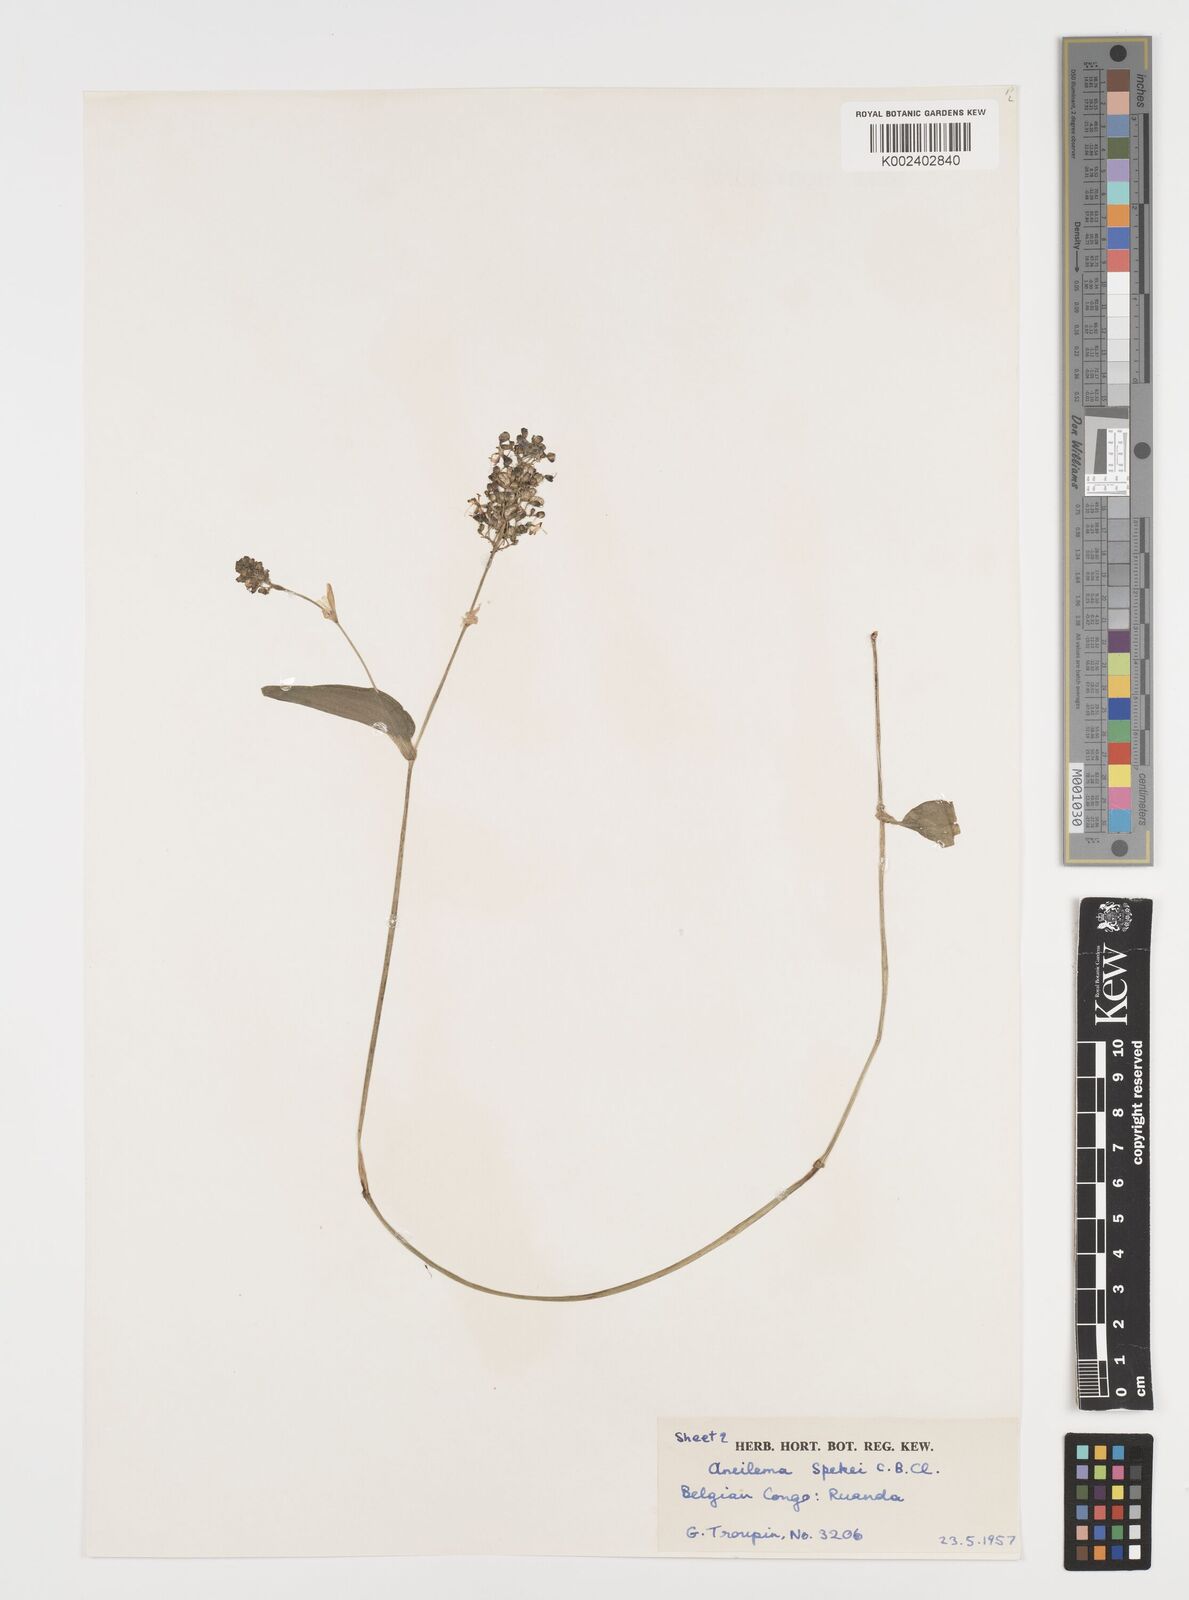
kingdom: Plantae
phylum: Tracheophyta
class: Liliopsida
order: Commelinales
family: Commelinaceae
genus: Aneilema
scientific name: Aneilema spekei
